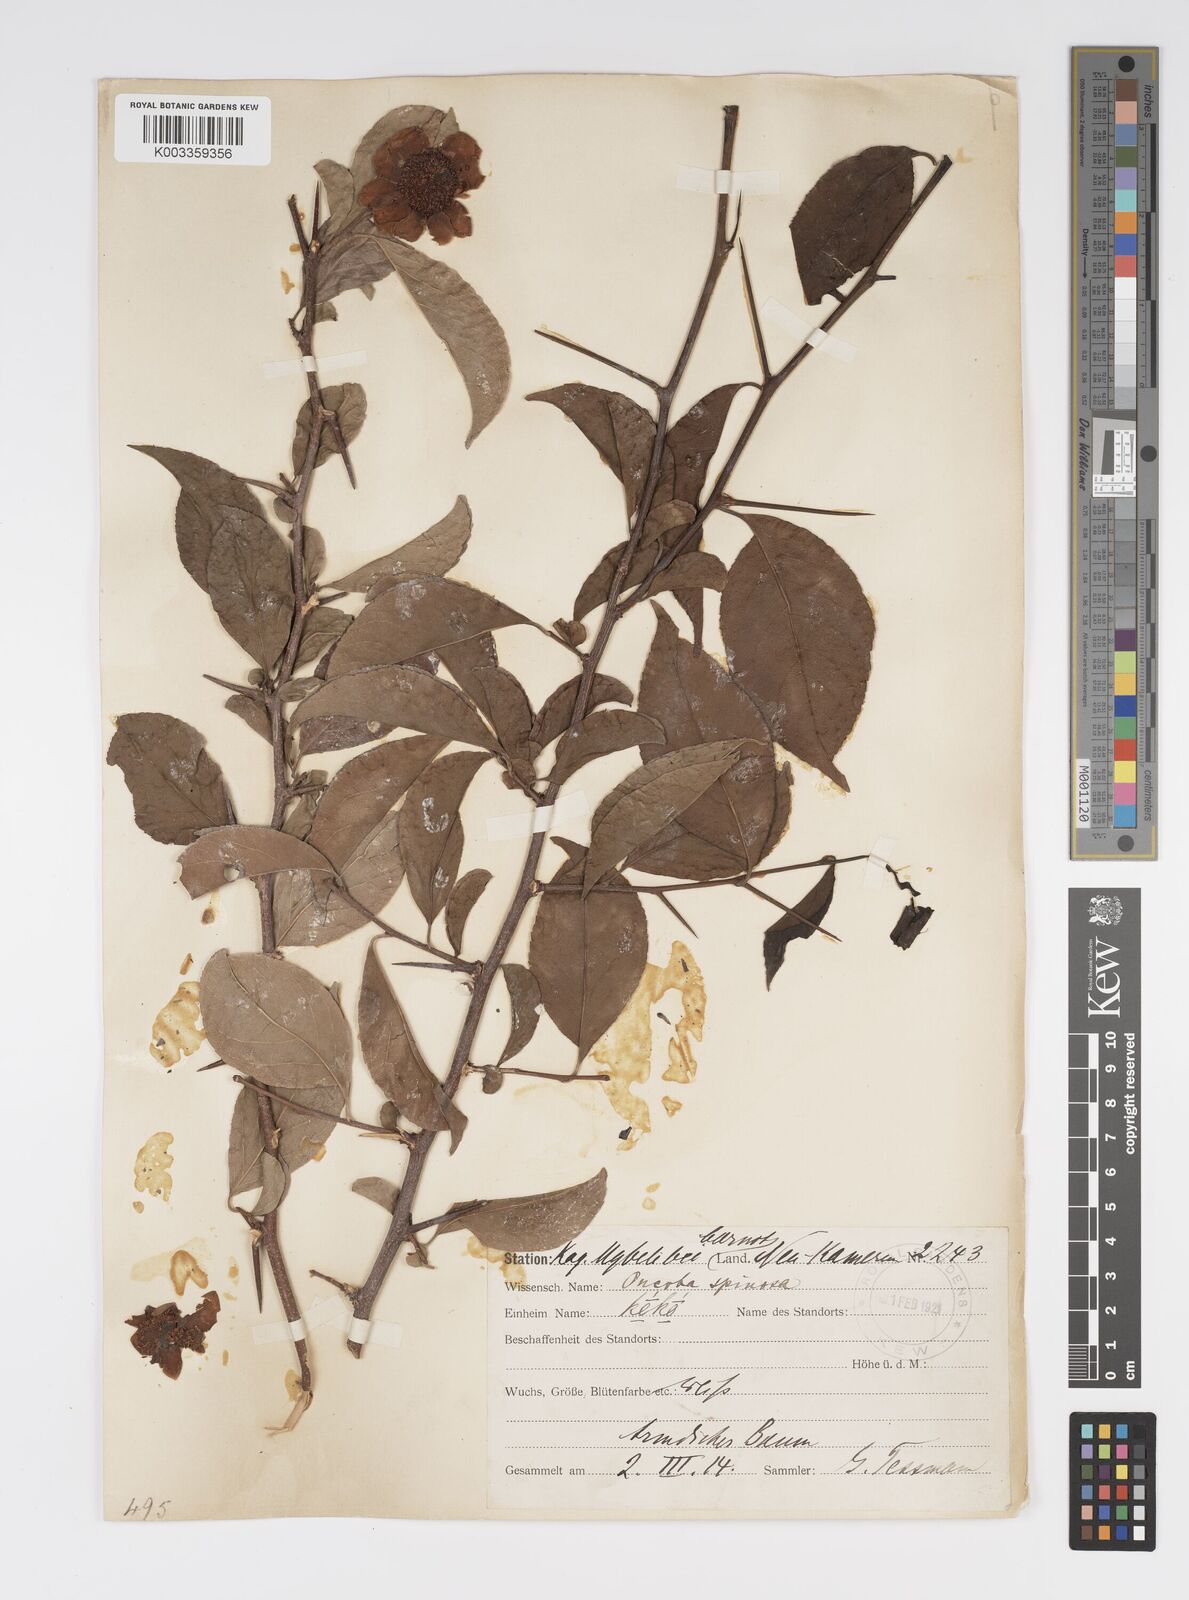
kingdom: Plantae
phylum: Tracheophyta
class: Magnoliopsida
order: Malpighiales
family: Salicaceae
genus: Oncoba
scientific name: Oncoba spinosa
